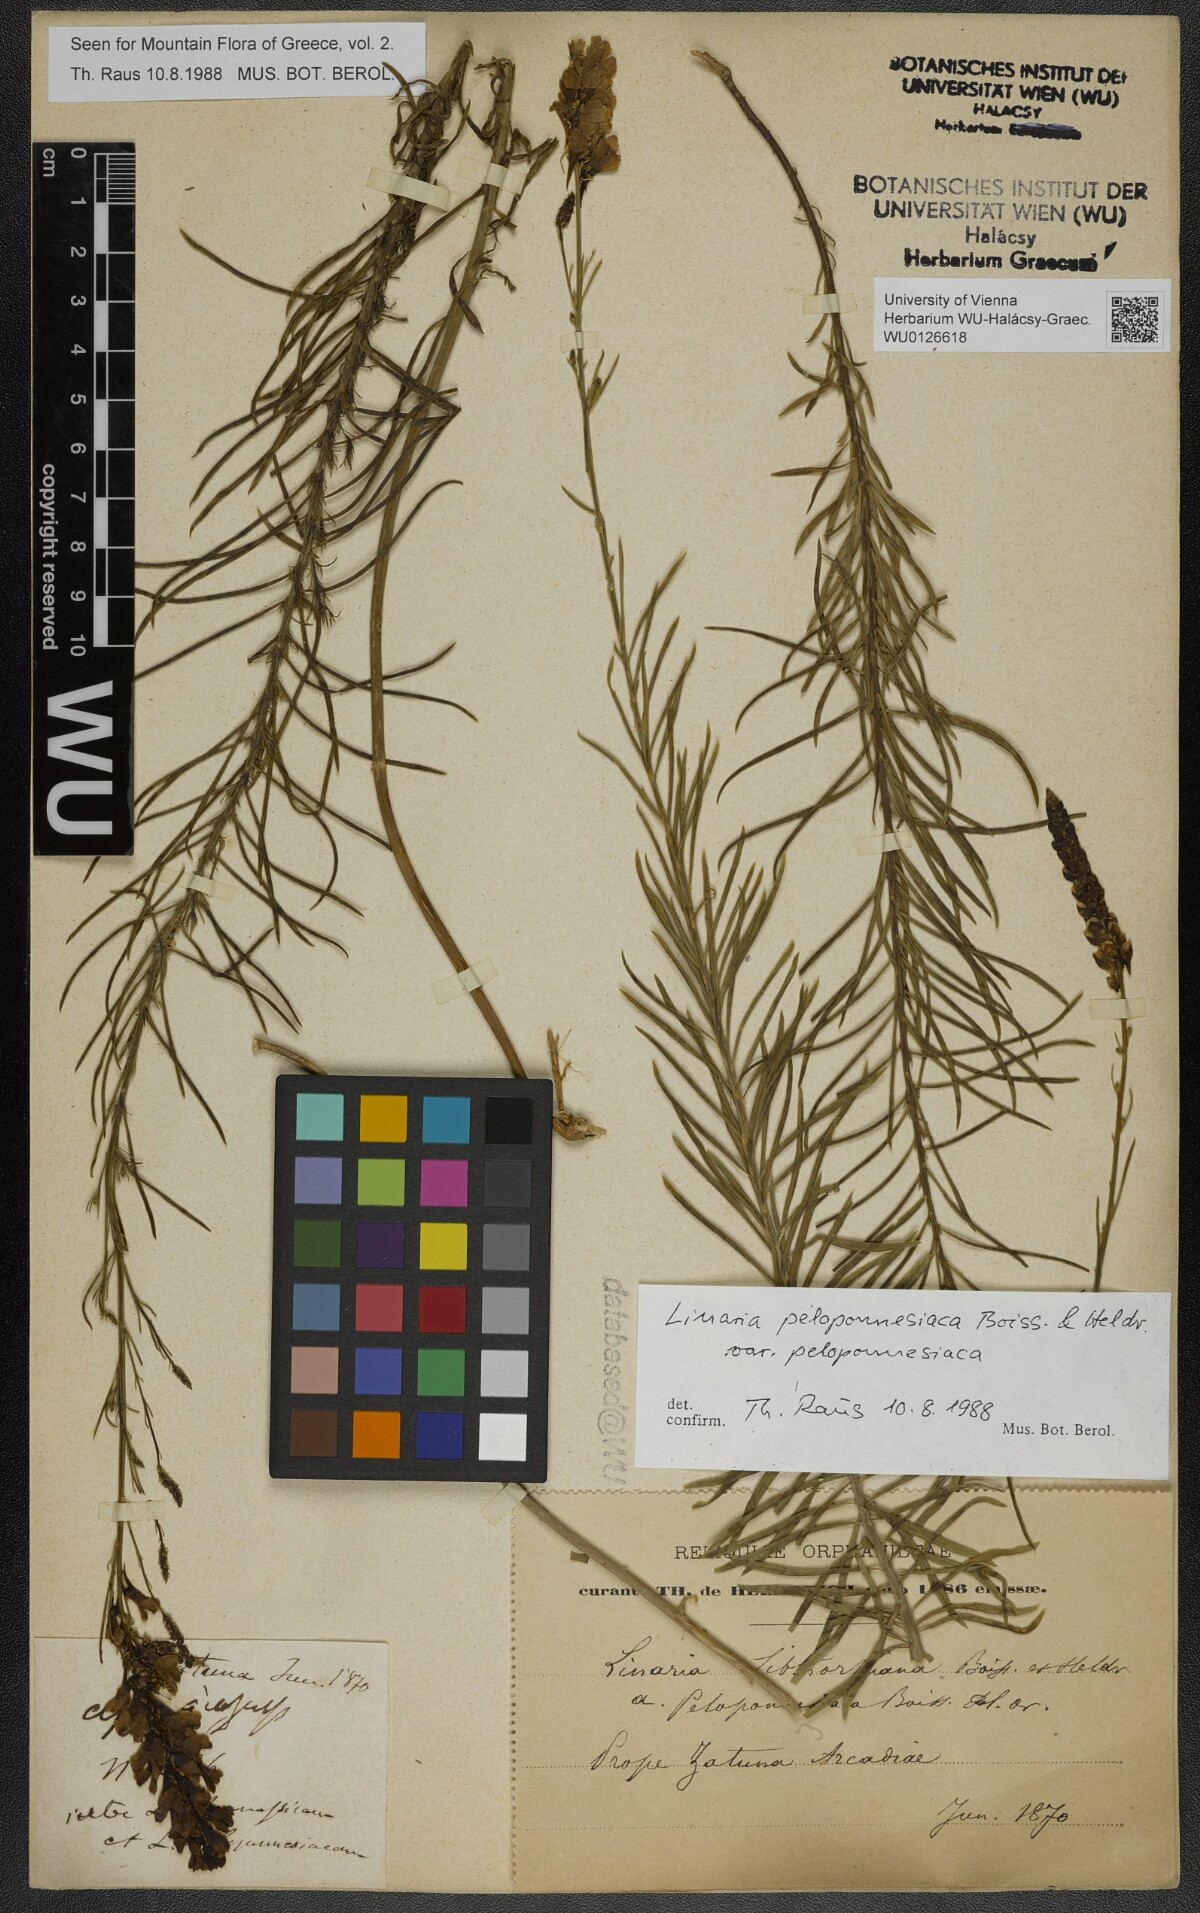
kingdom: Plantae
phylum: Tracheophyta
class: Magnoliopsida
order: Lamiales
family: Plantaginaceae
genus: Linaria
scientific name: Linaria peloponnesiaca
